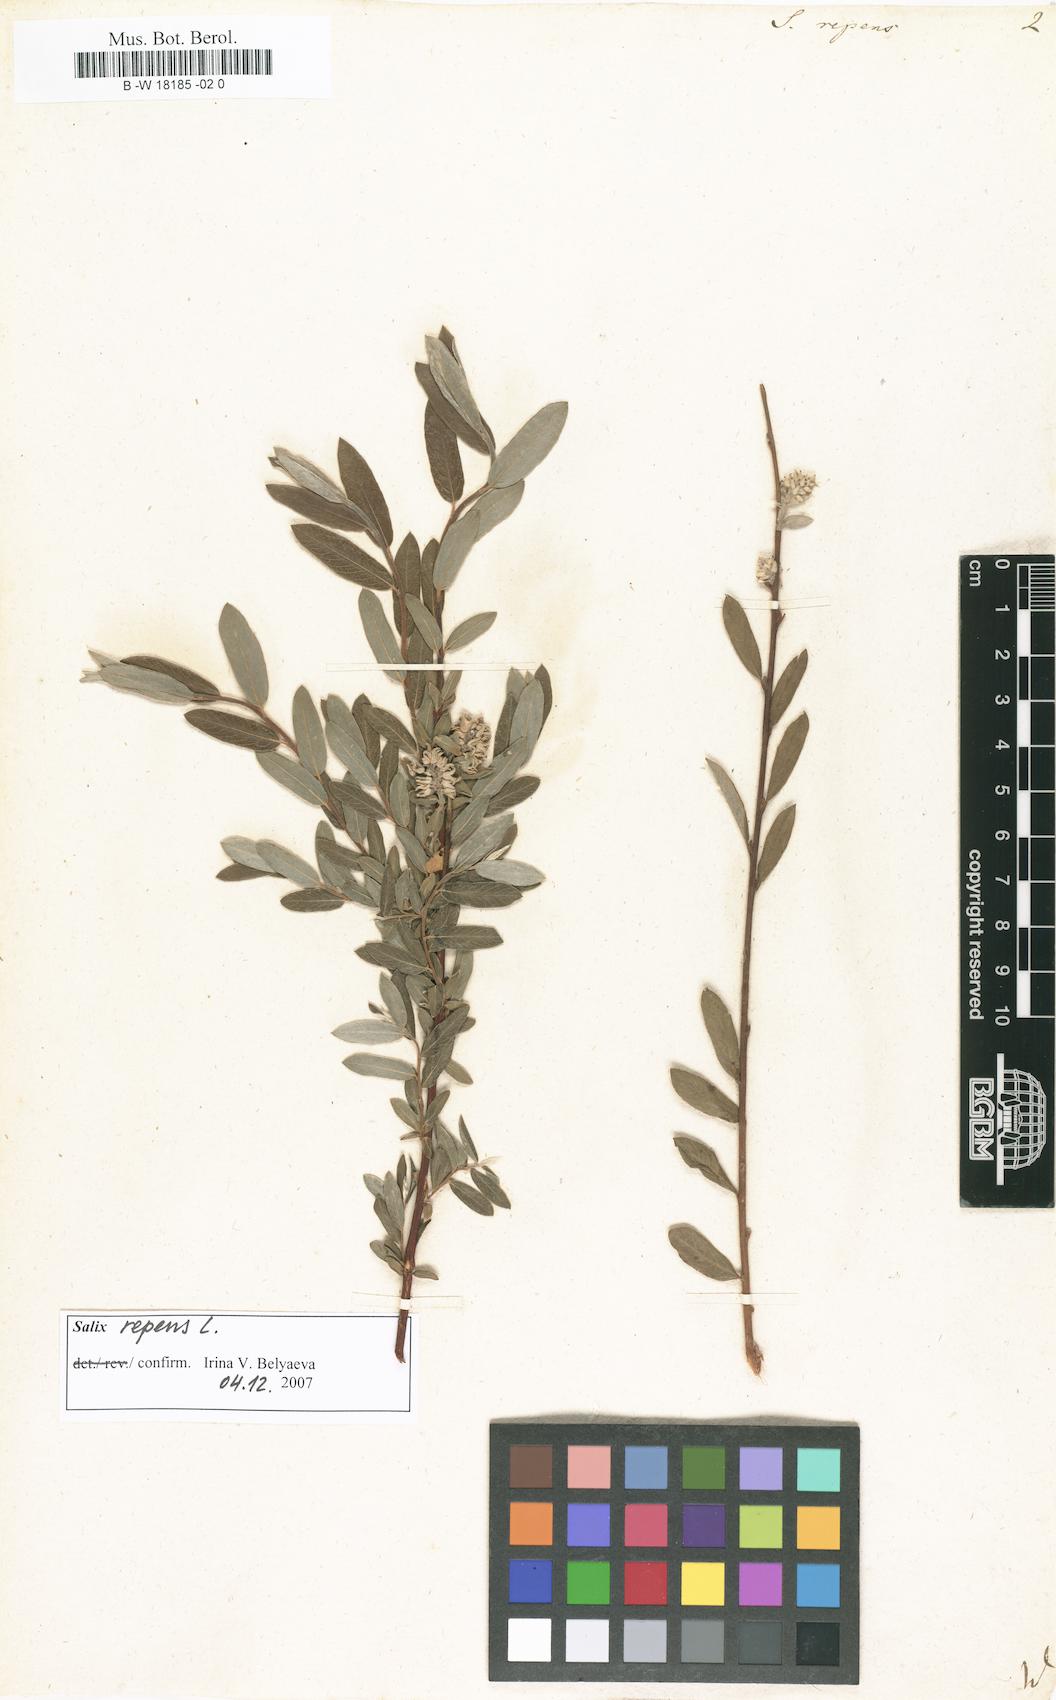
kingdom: Plantae
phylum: Tracheophyta
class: Magnoliopsida
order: Malpighiales
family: Salicaceae
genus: Salix
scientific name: Salix repens
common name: Creeping willow
